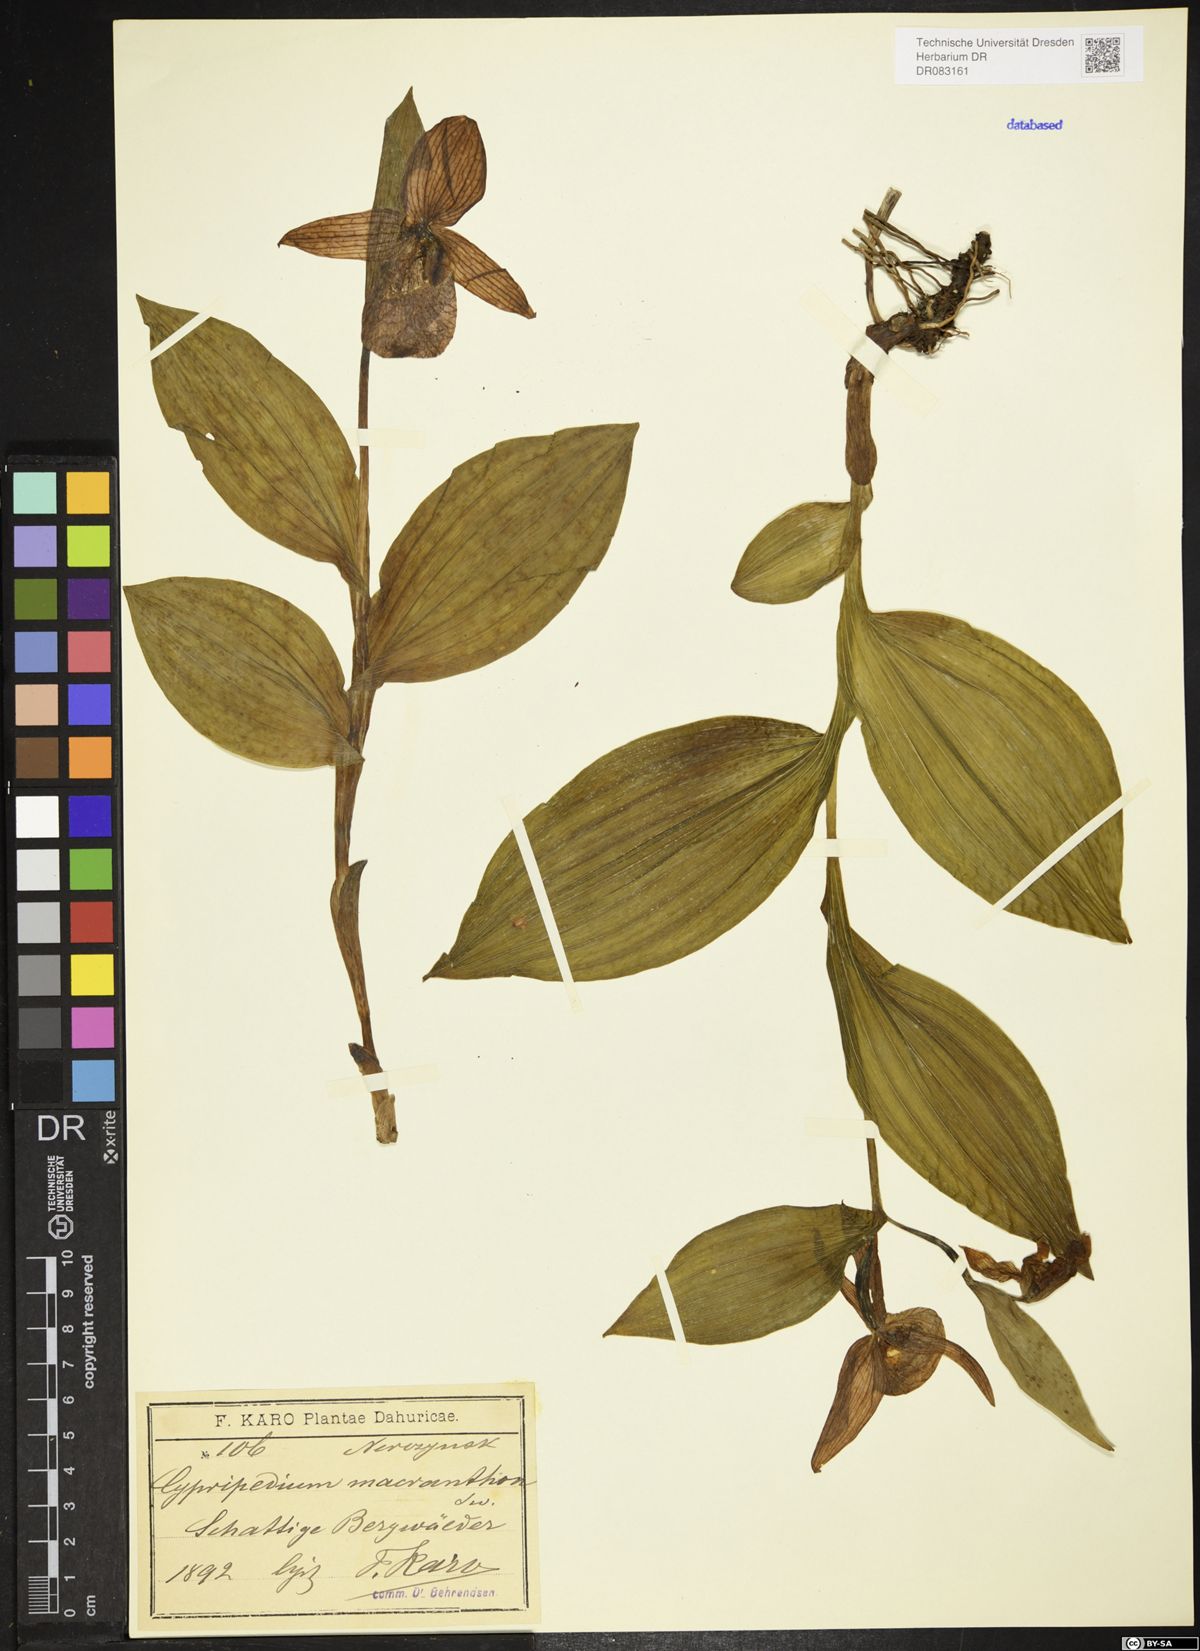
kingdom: Plantae
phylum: Tracheophyta
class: Liliopsida
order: Asparagales
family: Orchidaceae
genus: Cypripedium
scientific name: Cypripedium macranthos
